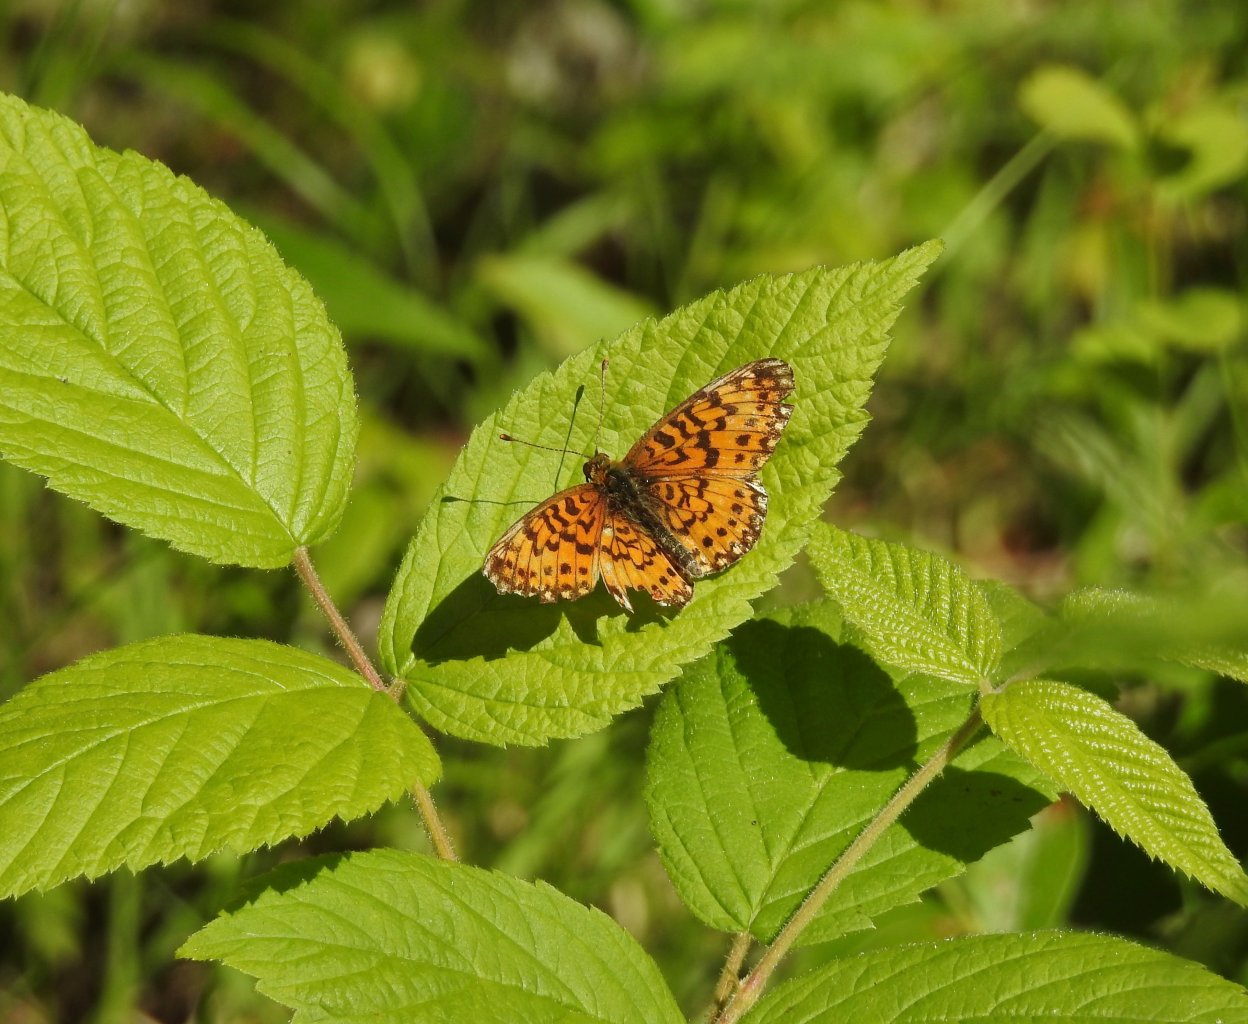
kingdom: Animalia
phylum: Arthropoda
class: Insecta
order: Lepidoptera
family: Nymphalidae
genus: Boloria
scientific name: Boloria selene
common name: Silver-bordered Fritillary
